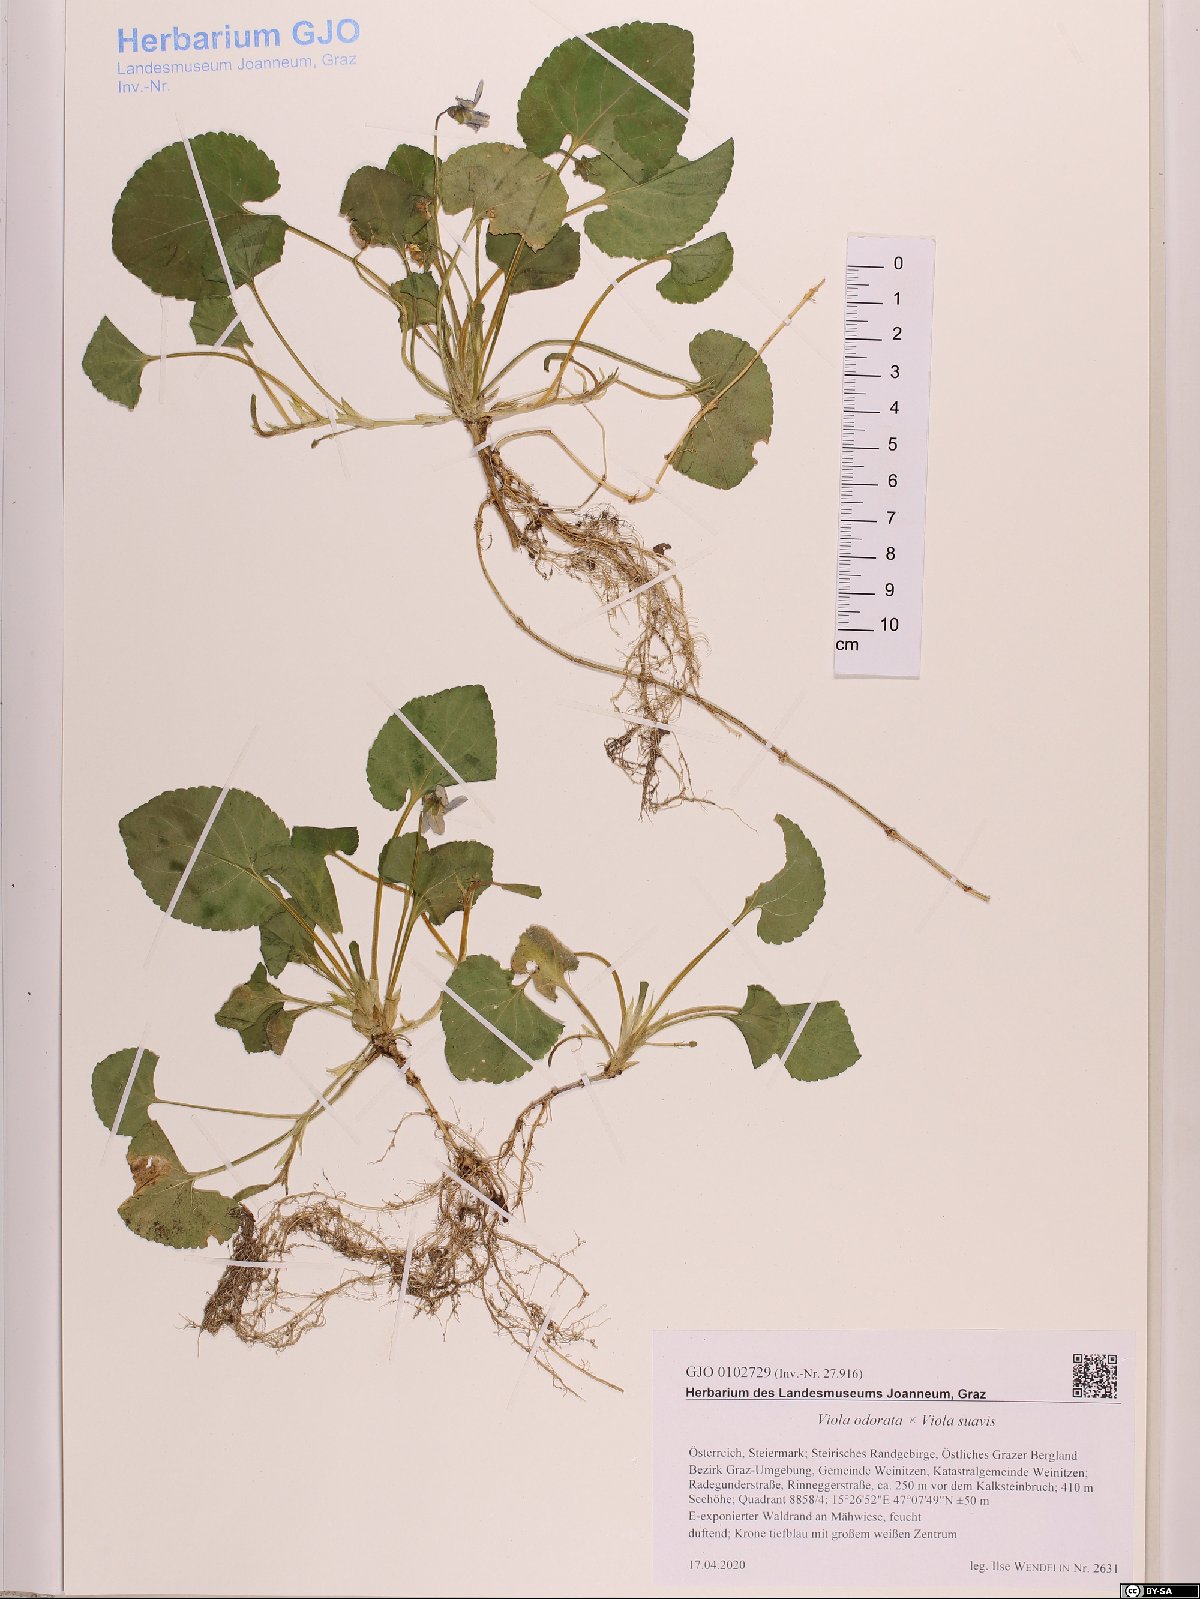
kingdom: Plantae
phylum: Tracheophyta
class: Magnoliopsida
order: Malpighiales
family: Violaceae
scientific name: Violaceae
